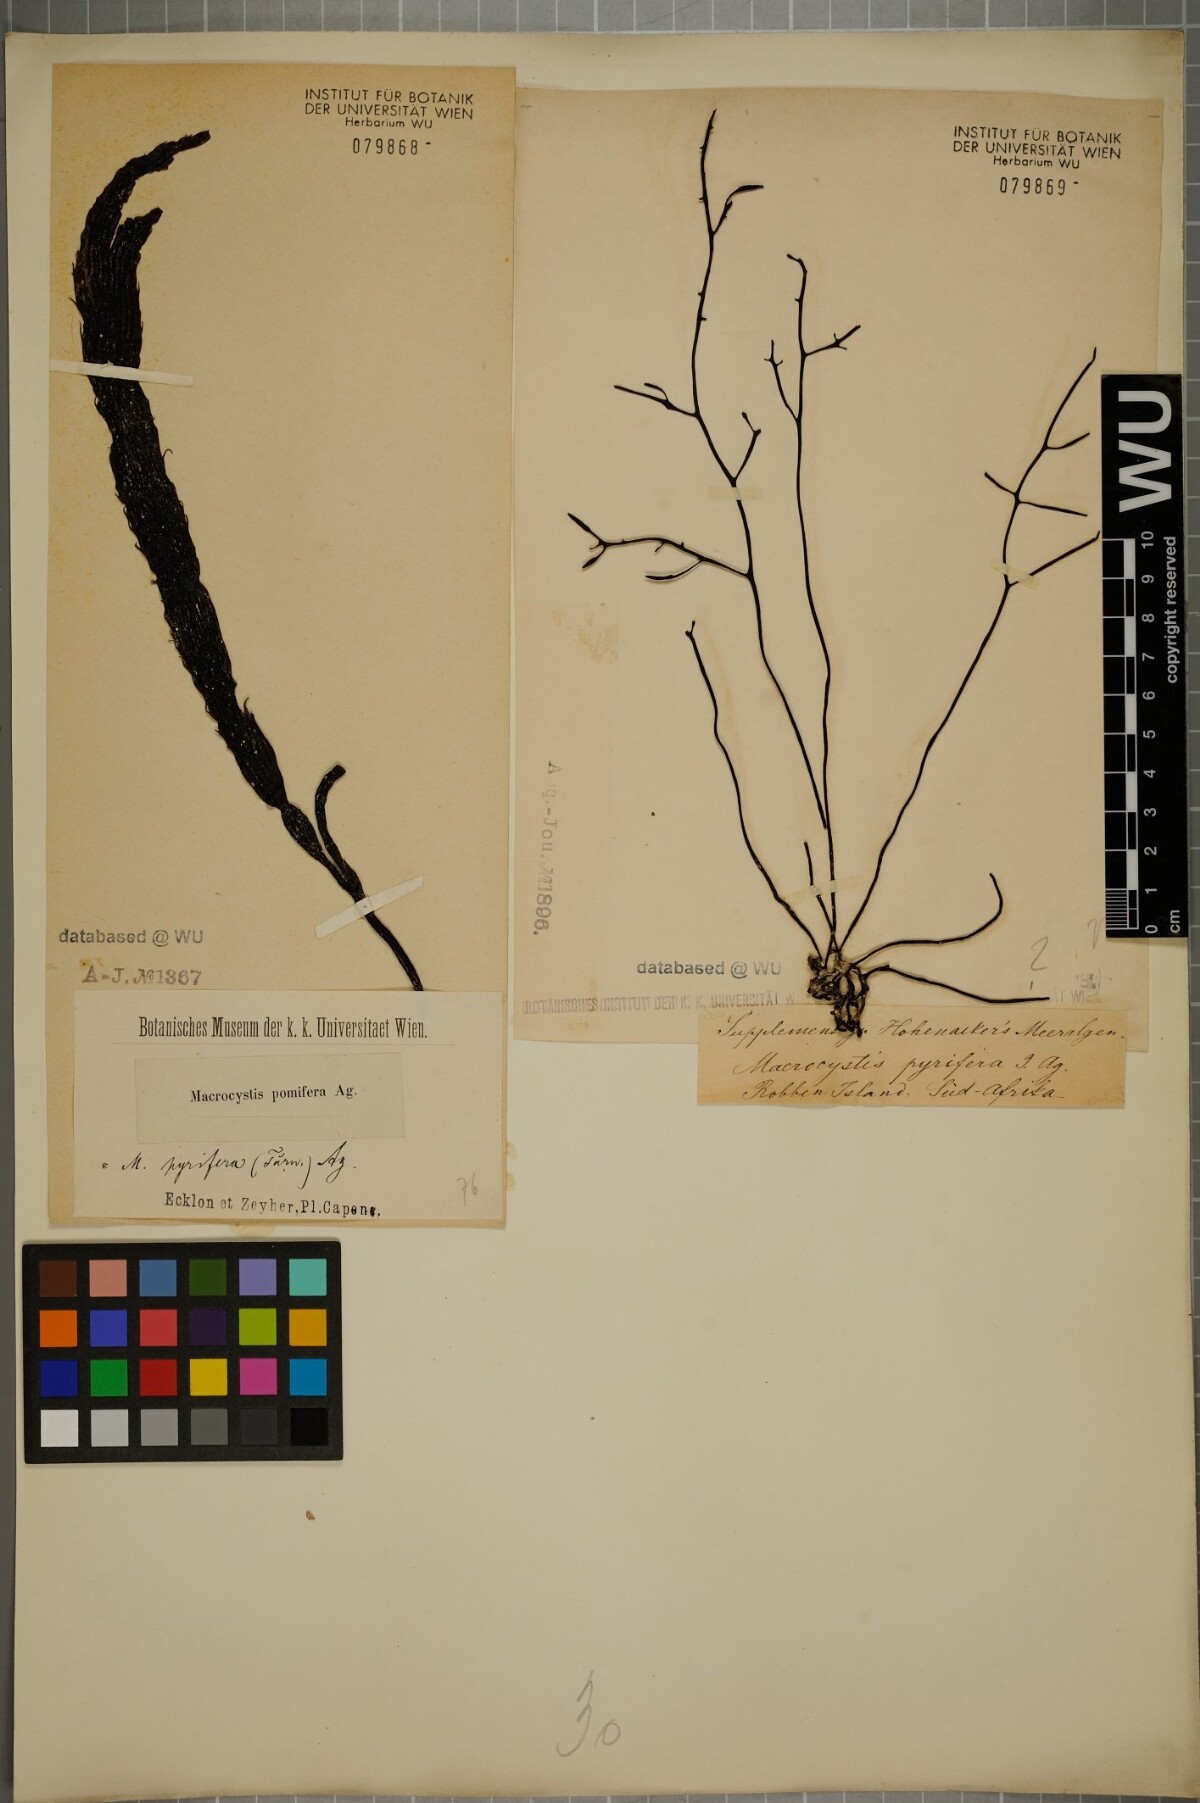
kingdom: Chromista
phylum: Ochrophyta
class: Phaeophyceae
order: Laminariales
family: Laminariaceae
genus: Macrocystis
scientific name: Macrocystis pyrifera
